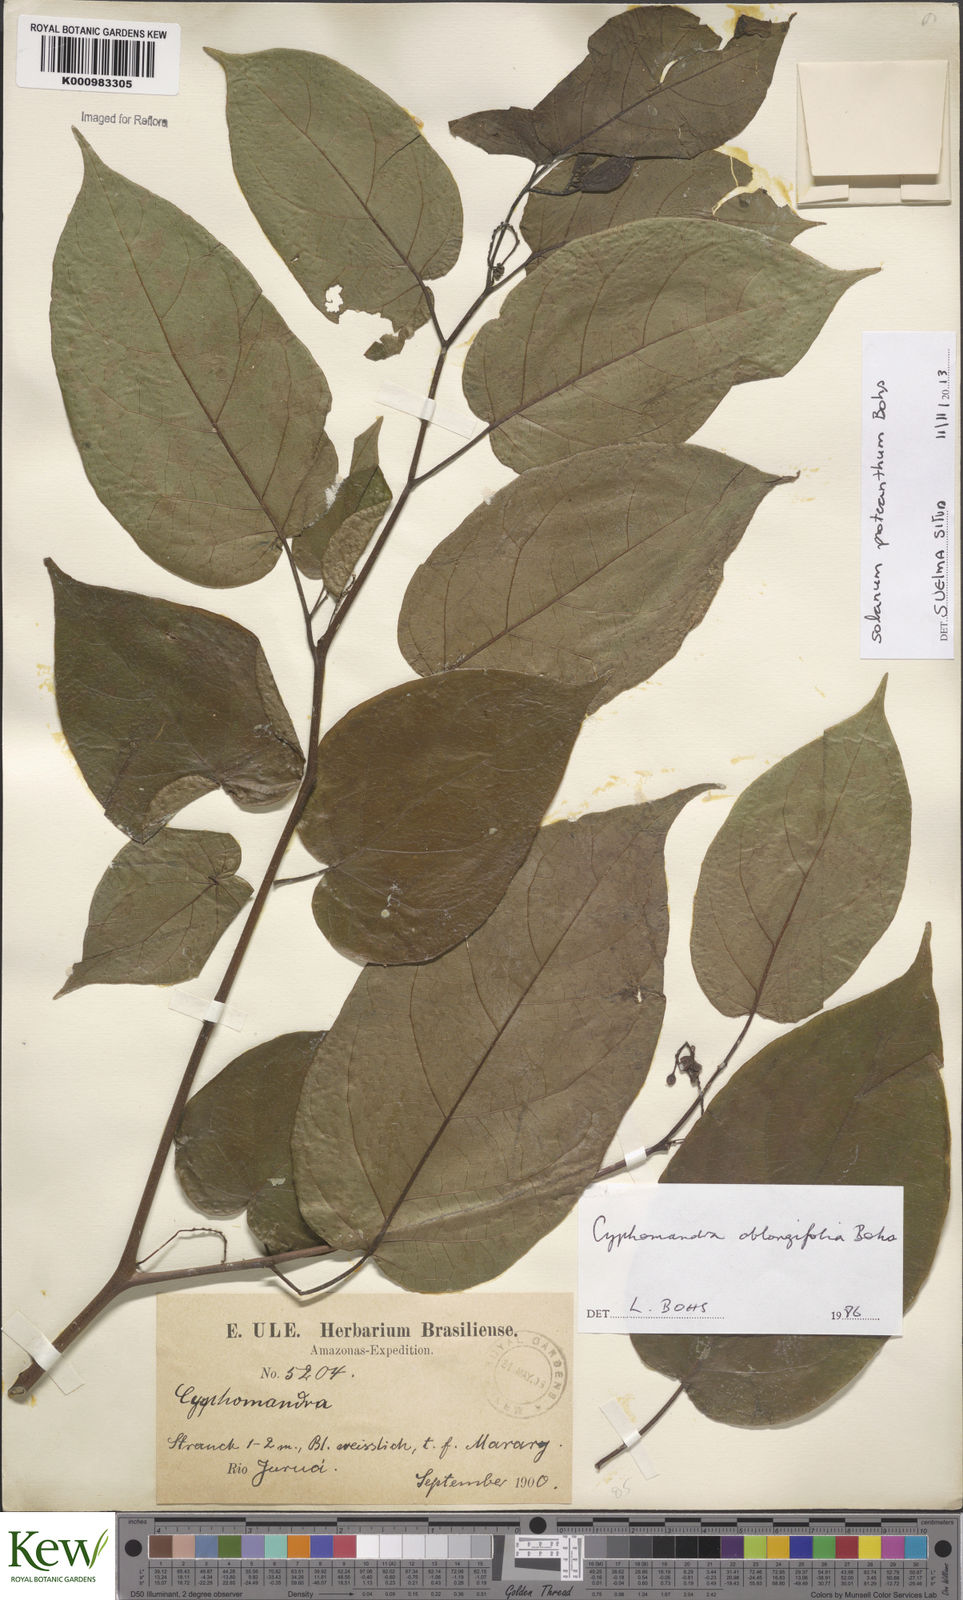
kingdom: Plantae
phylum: Tracheophyta
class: Magnoliopsida
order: Solanales
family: Solanaceae
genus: Solanum
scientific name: Solanum proteanthum
